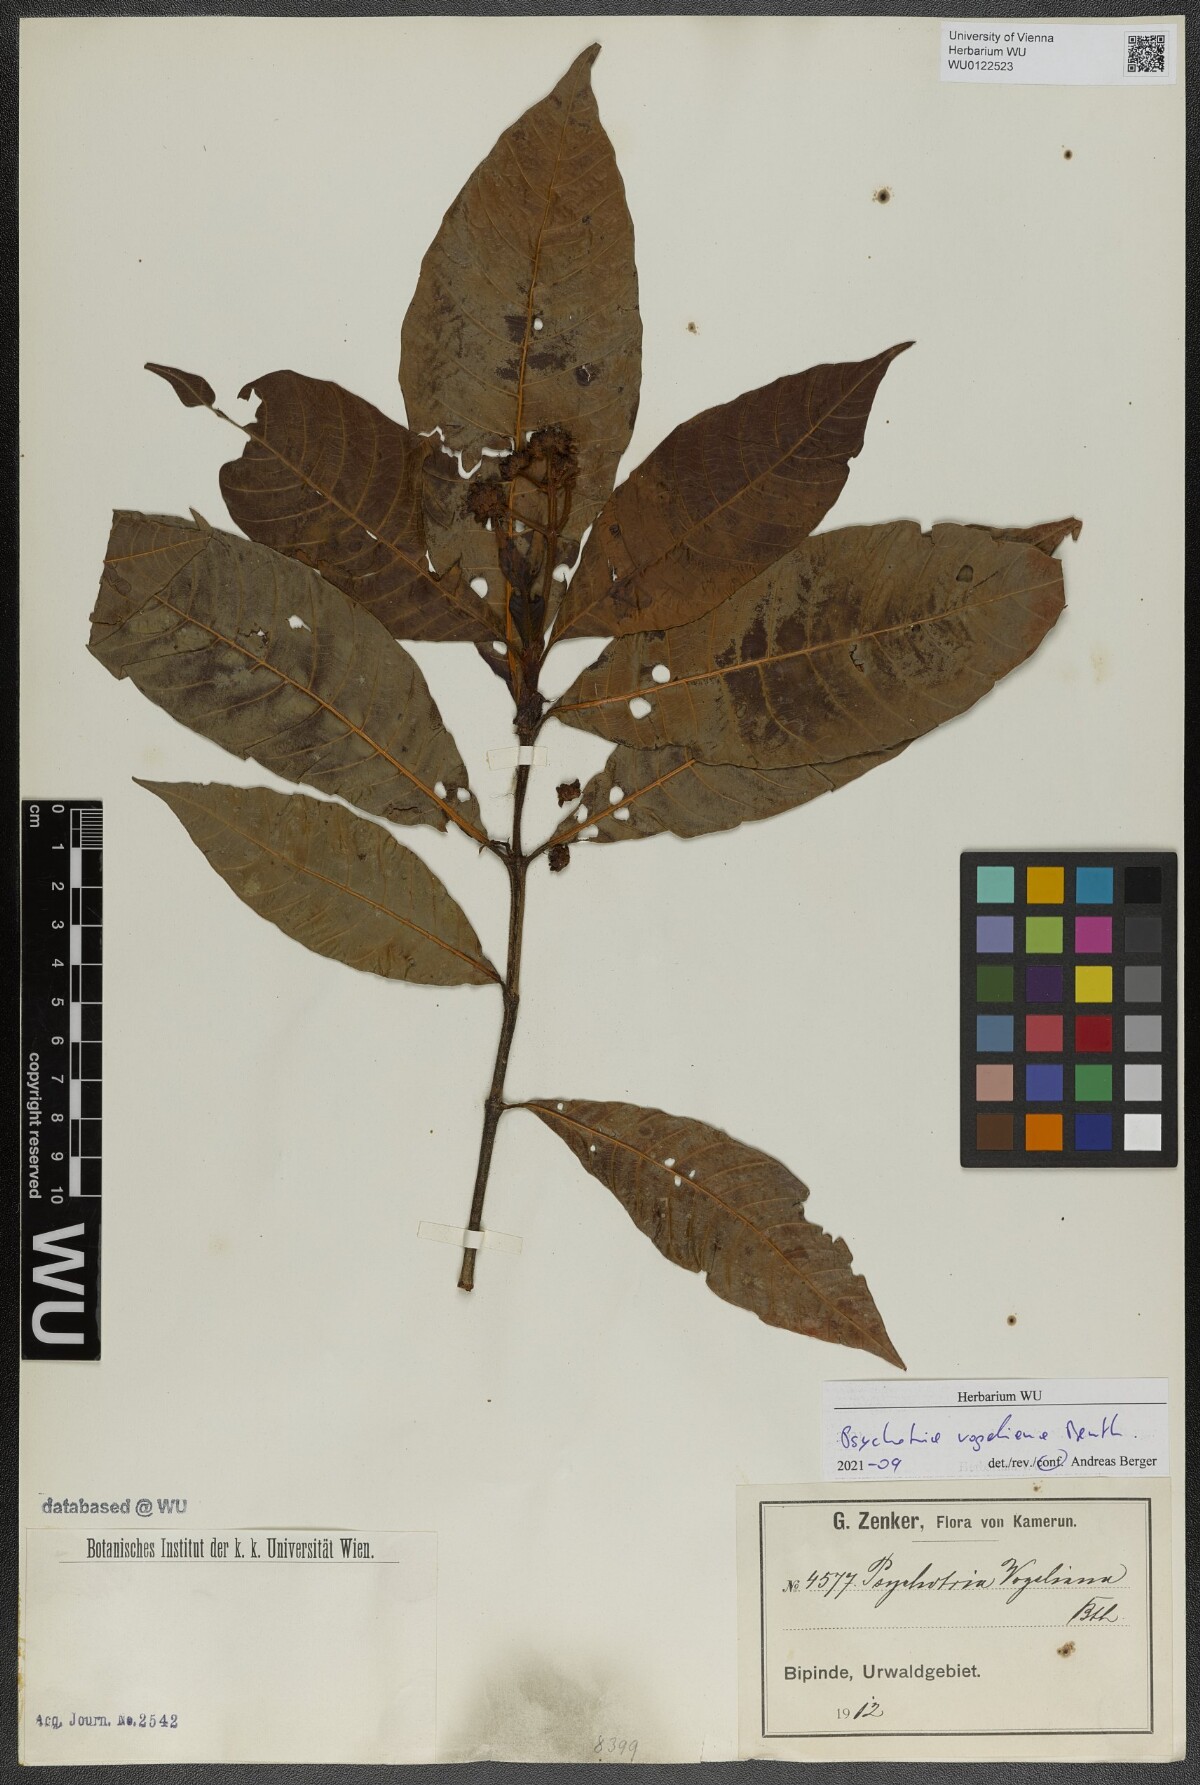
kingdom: Plantae
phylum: Tracheophyta
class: Magnoliopsida
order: Gentianales
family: Rubiaceae
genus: Psychotria
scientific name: Psychotria vogeliana
